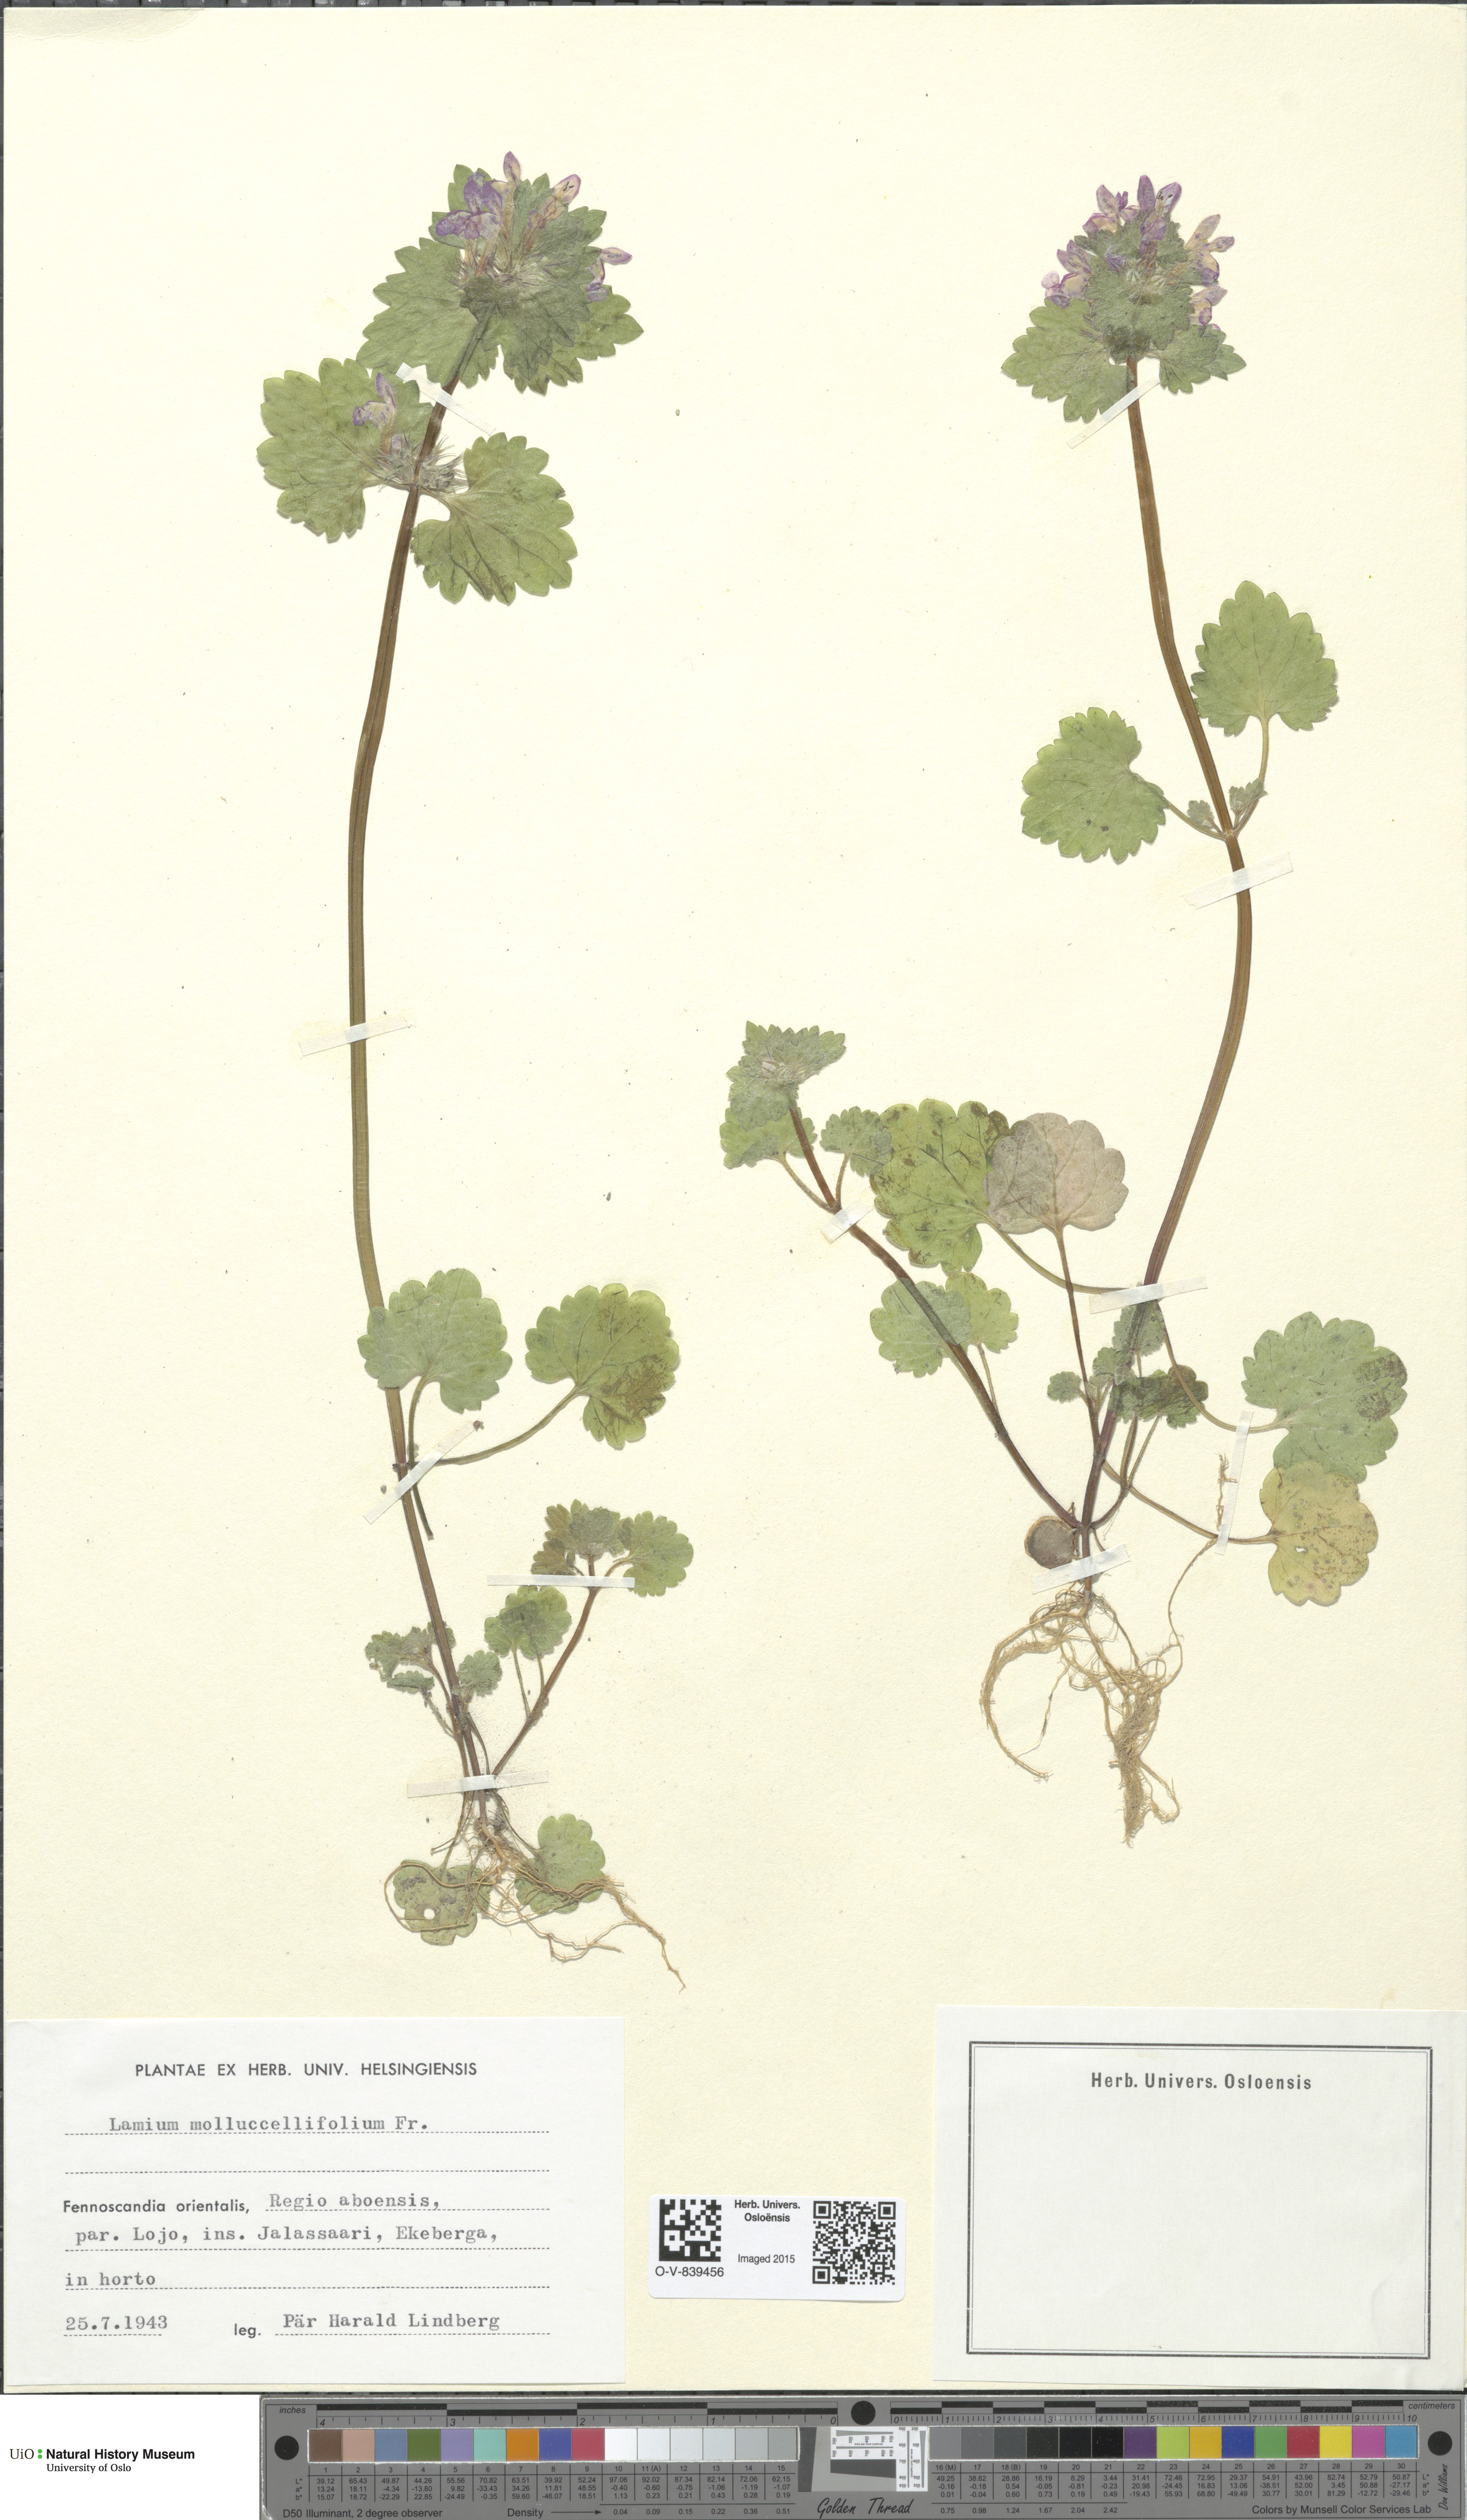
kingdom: Plantae
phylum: Tracheophyta
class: Magnoliopsida
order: Lamiales
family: Lamiaceae
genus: Lamium
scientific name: Lamium confertum
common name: Northern dead-nettle
